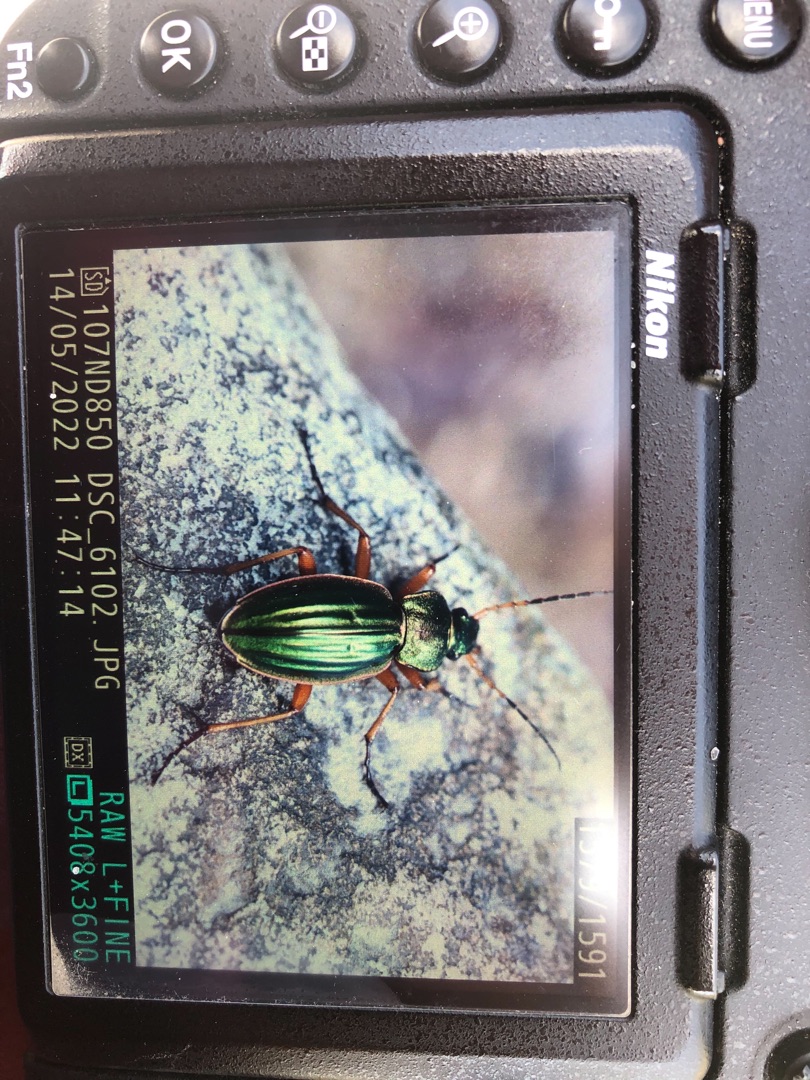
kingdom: Animalia
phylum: Arthropoda
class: Insecta
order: Coleoptera
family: Carabidae
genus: Carabus
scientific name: Carabus auratus
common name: Stor guldløber
